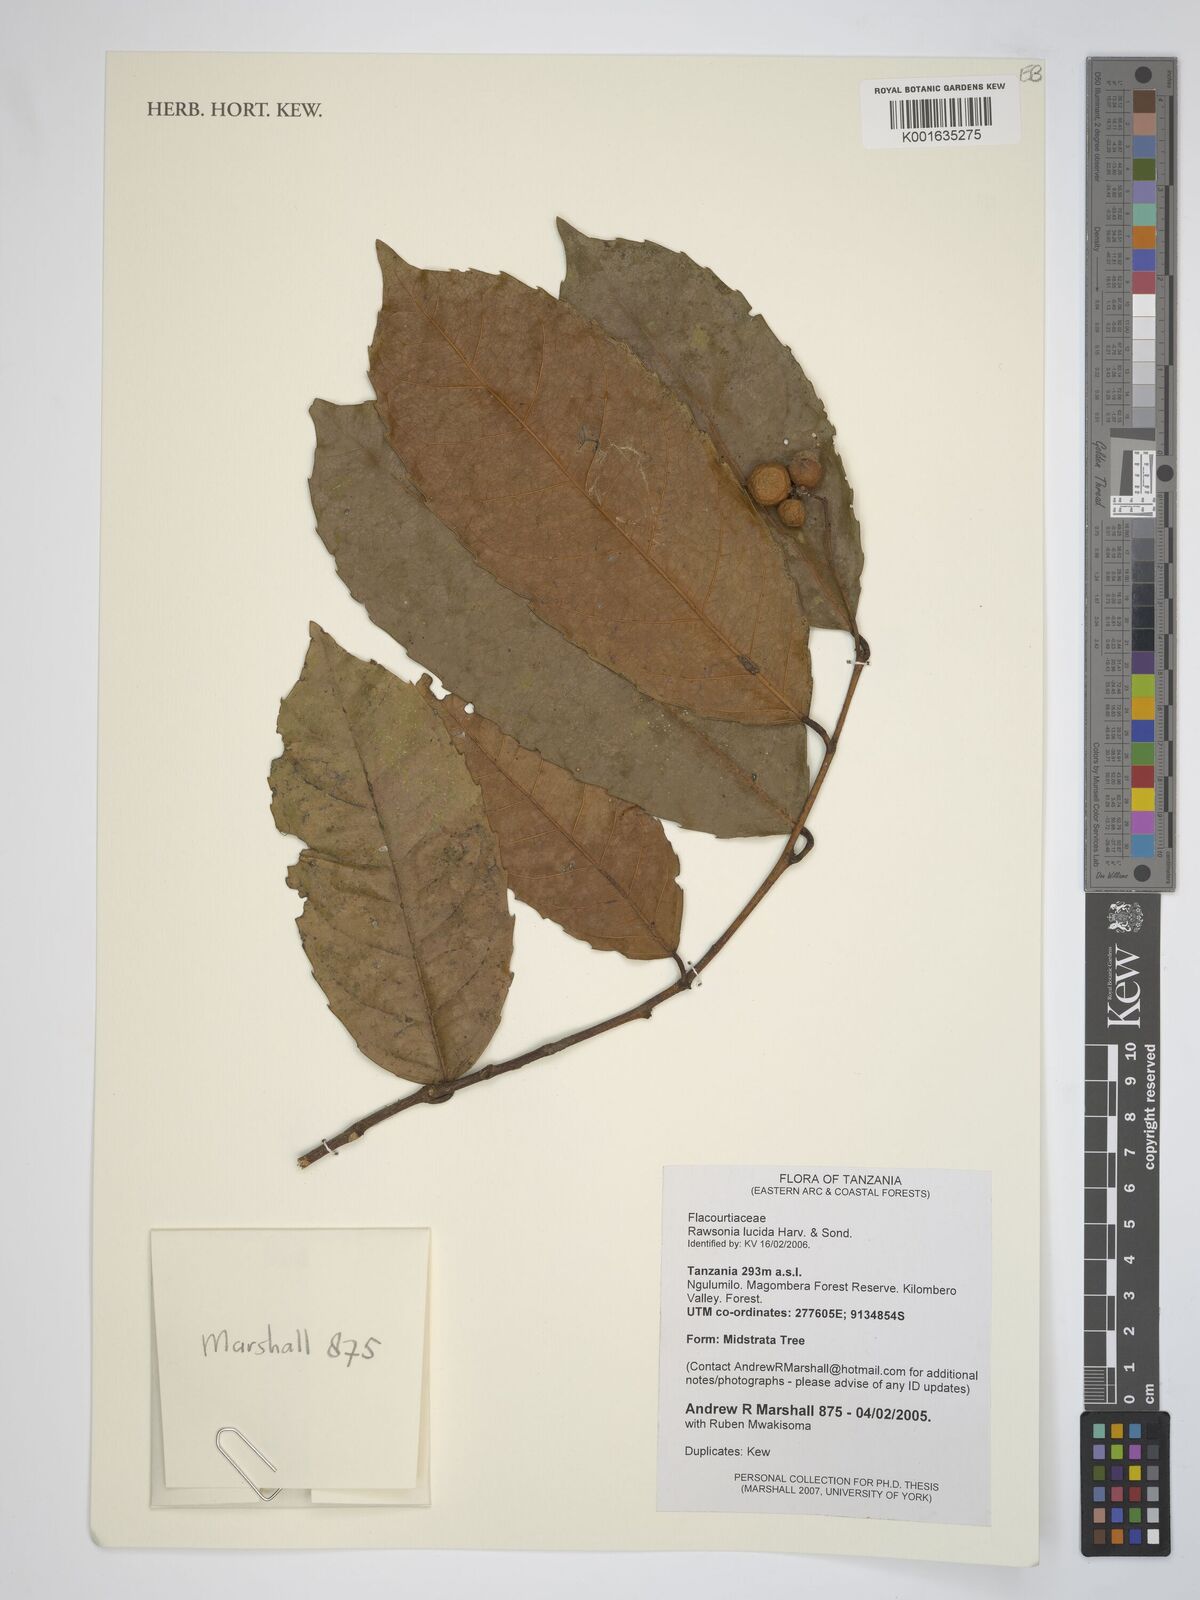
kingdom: Plantae
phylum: Tracheophyta
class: Magnoliopsida
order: Malpighiales
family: Achariaceae
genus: Rawsonia
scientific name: Rawsonia lucida
